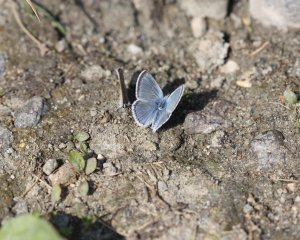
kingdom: Animalia
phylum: Arthropoda
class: Insecta
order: Lepidoptera
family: Lycaenidae
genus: Glaucopsyche
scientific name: Glaucopsyche lygdamus
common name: Silvery Blue
